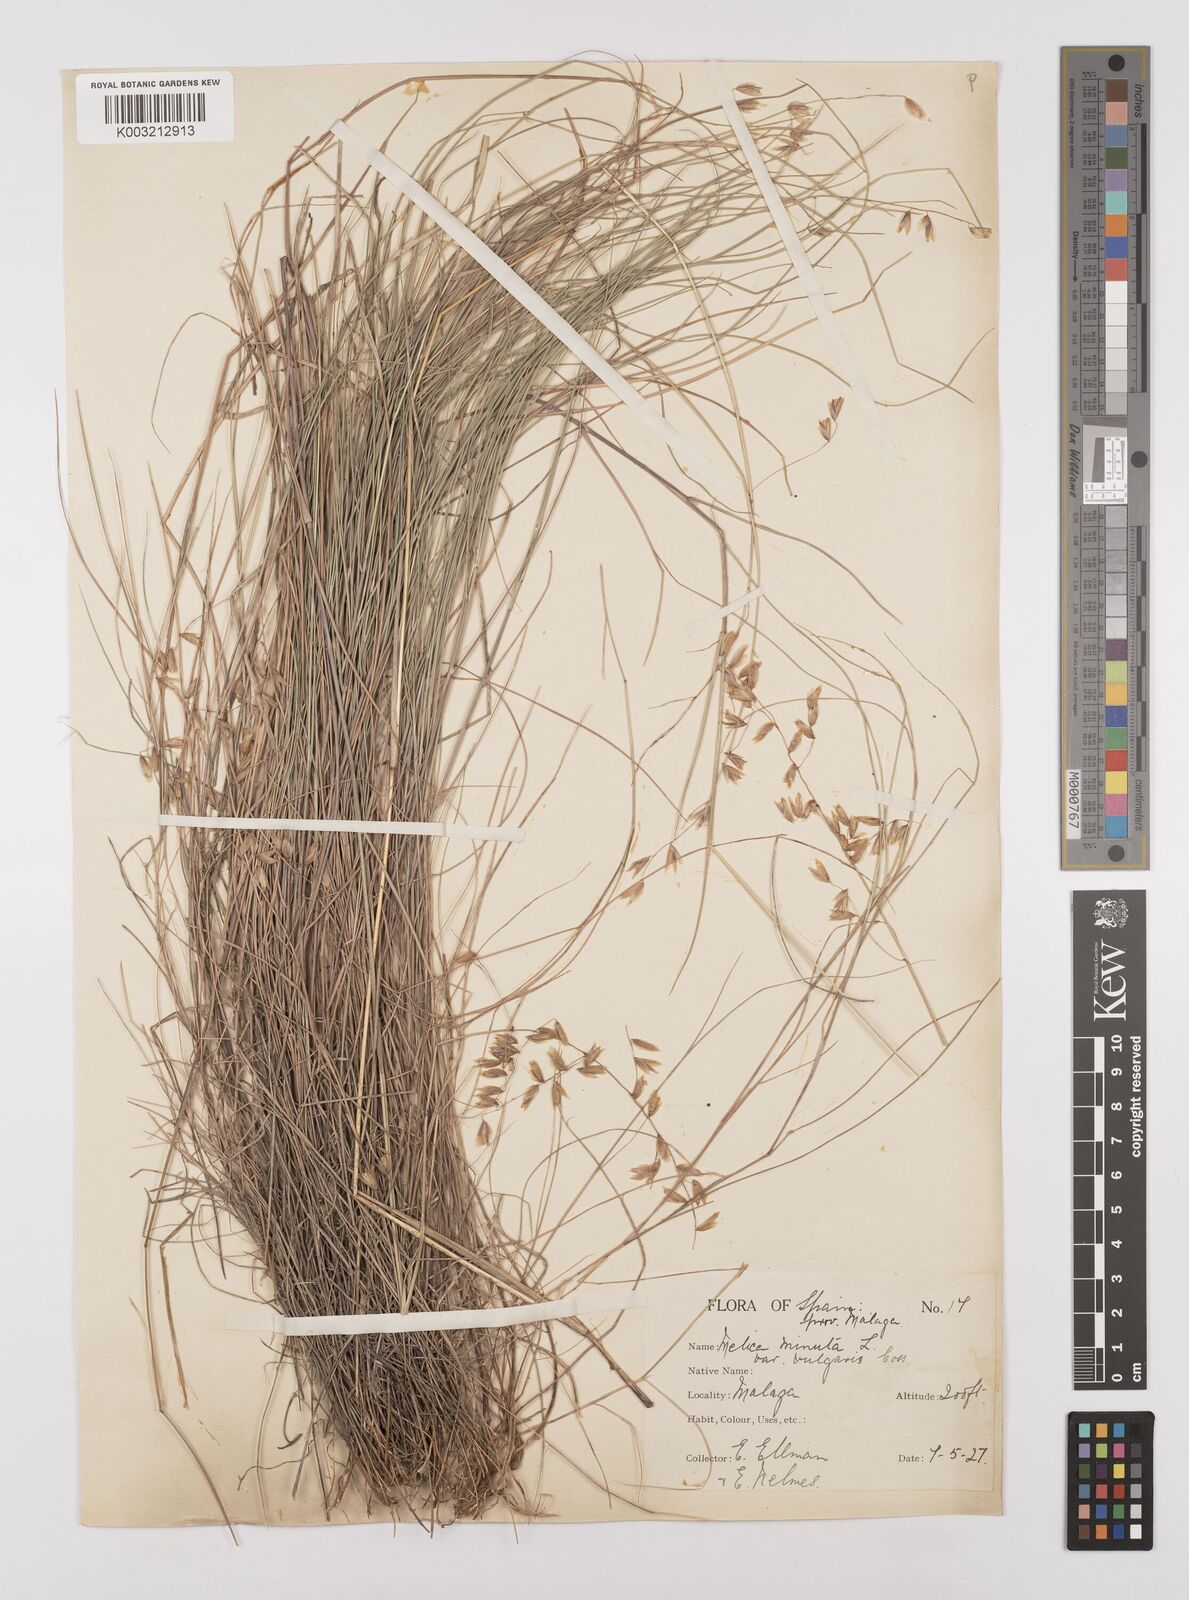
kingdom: Plantae
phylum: Tracheophyta
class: Liliopsida
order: Poales
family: Poaceae
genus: Melica
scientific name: Melica minuta
